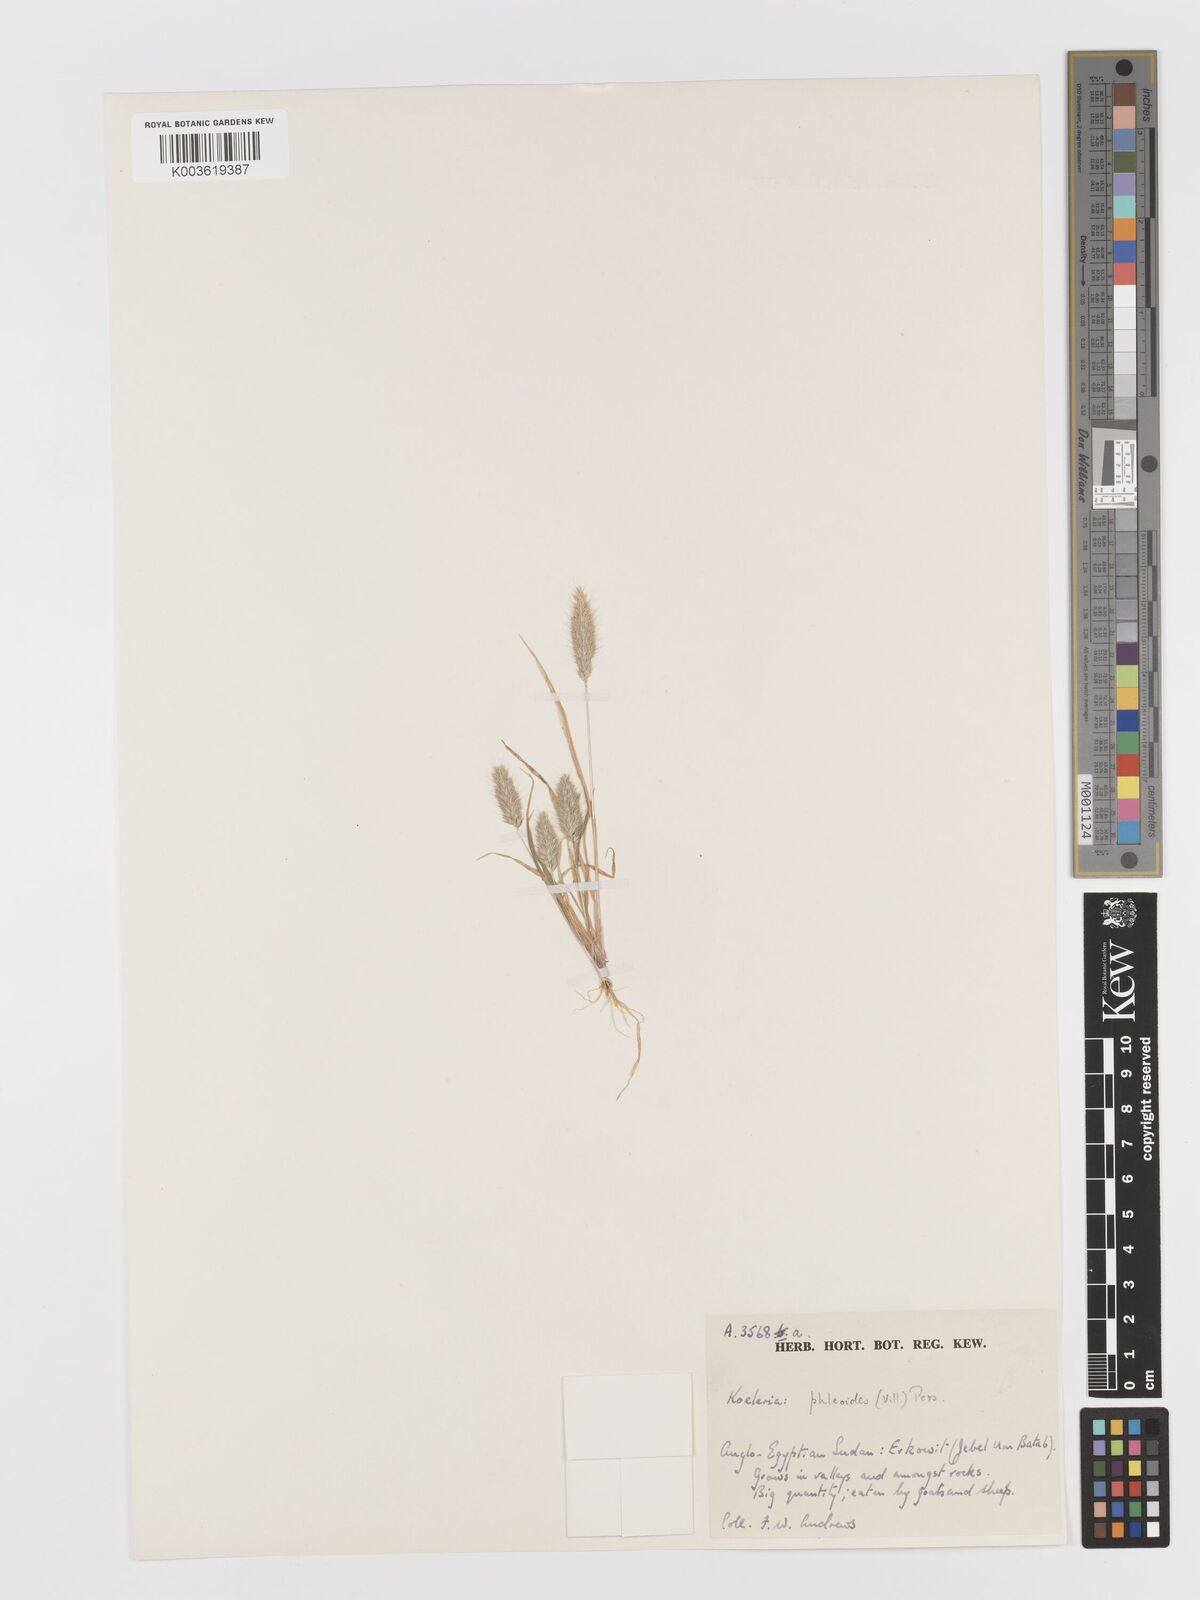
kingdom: Plantae
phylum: Tracheophyta
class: Liliopsida
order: Poales
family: Poaceae
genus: Rostraria
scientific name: Rostraria cristata
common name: Mediterranean hair-grass
